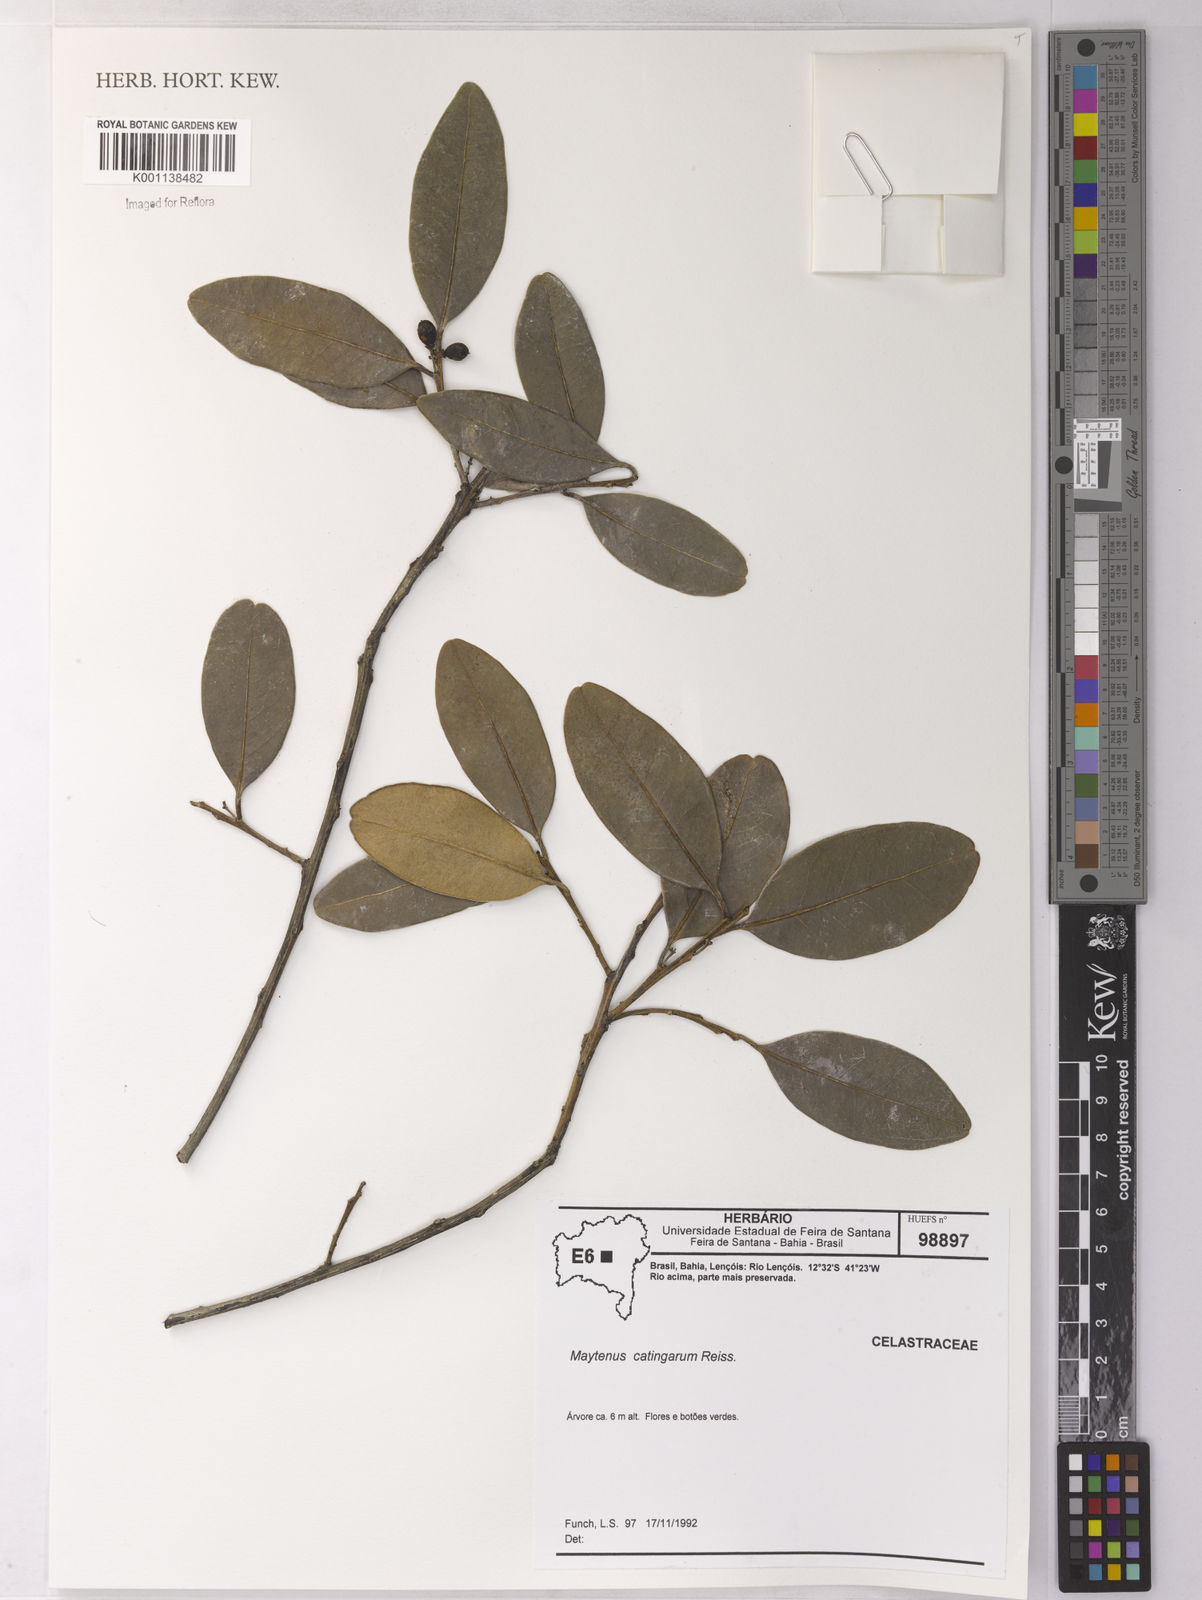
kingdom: Plantae
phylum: Tracheophyta
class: Magnoliopsida
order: Celastrales
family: Celastraceae
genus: Monteverdia
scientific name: Monteverdia catingarum
